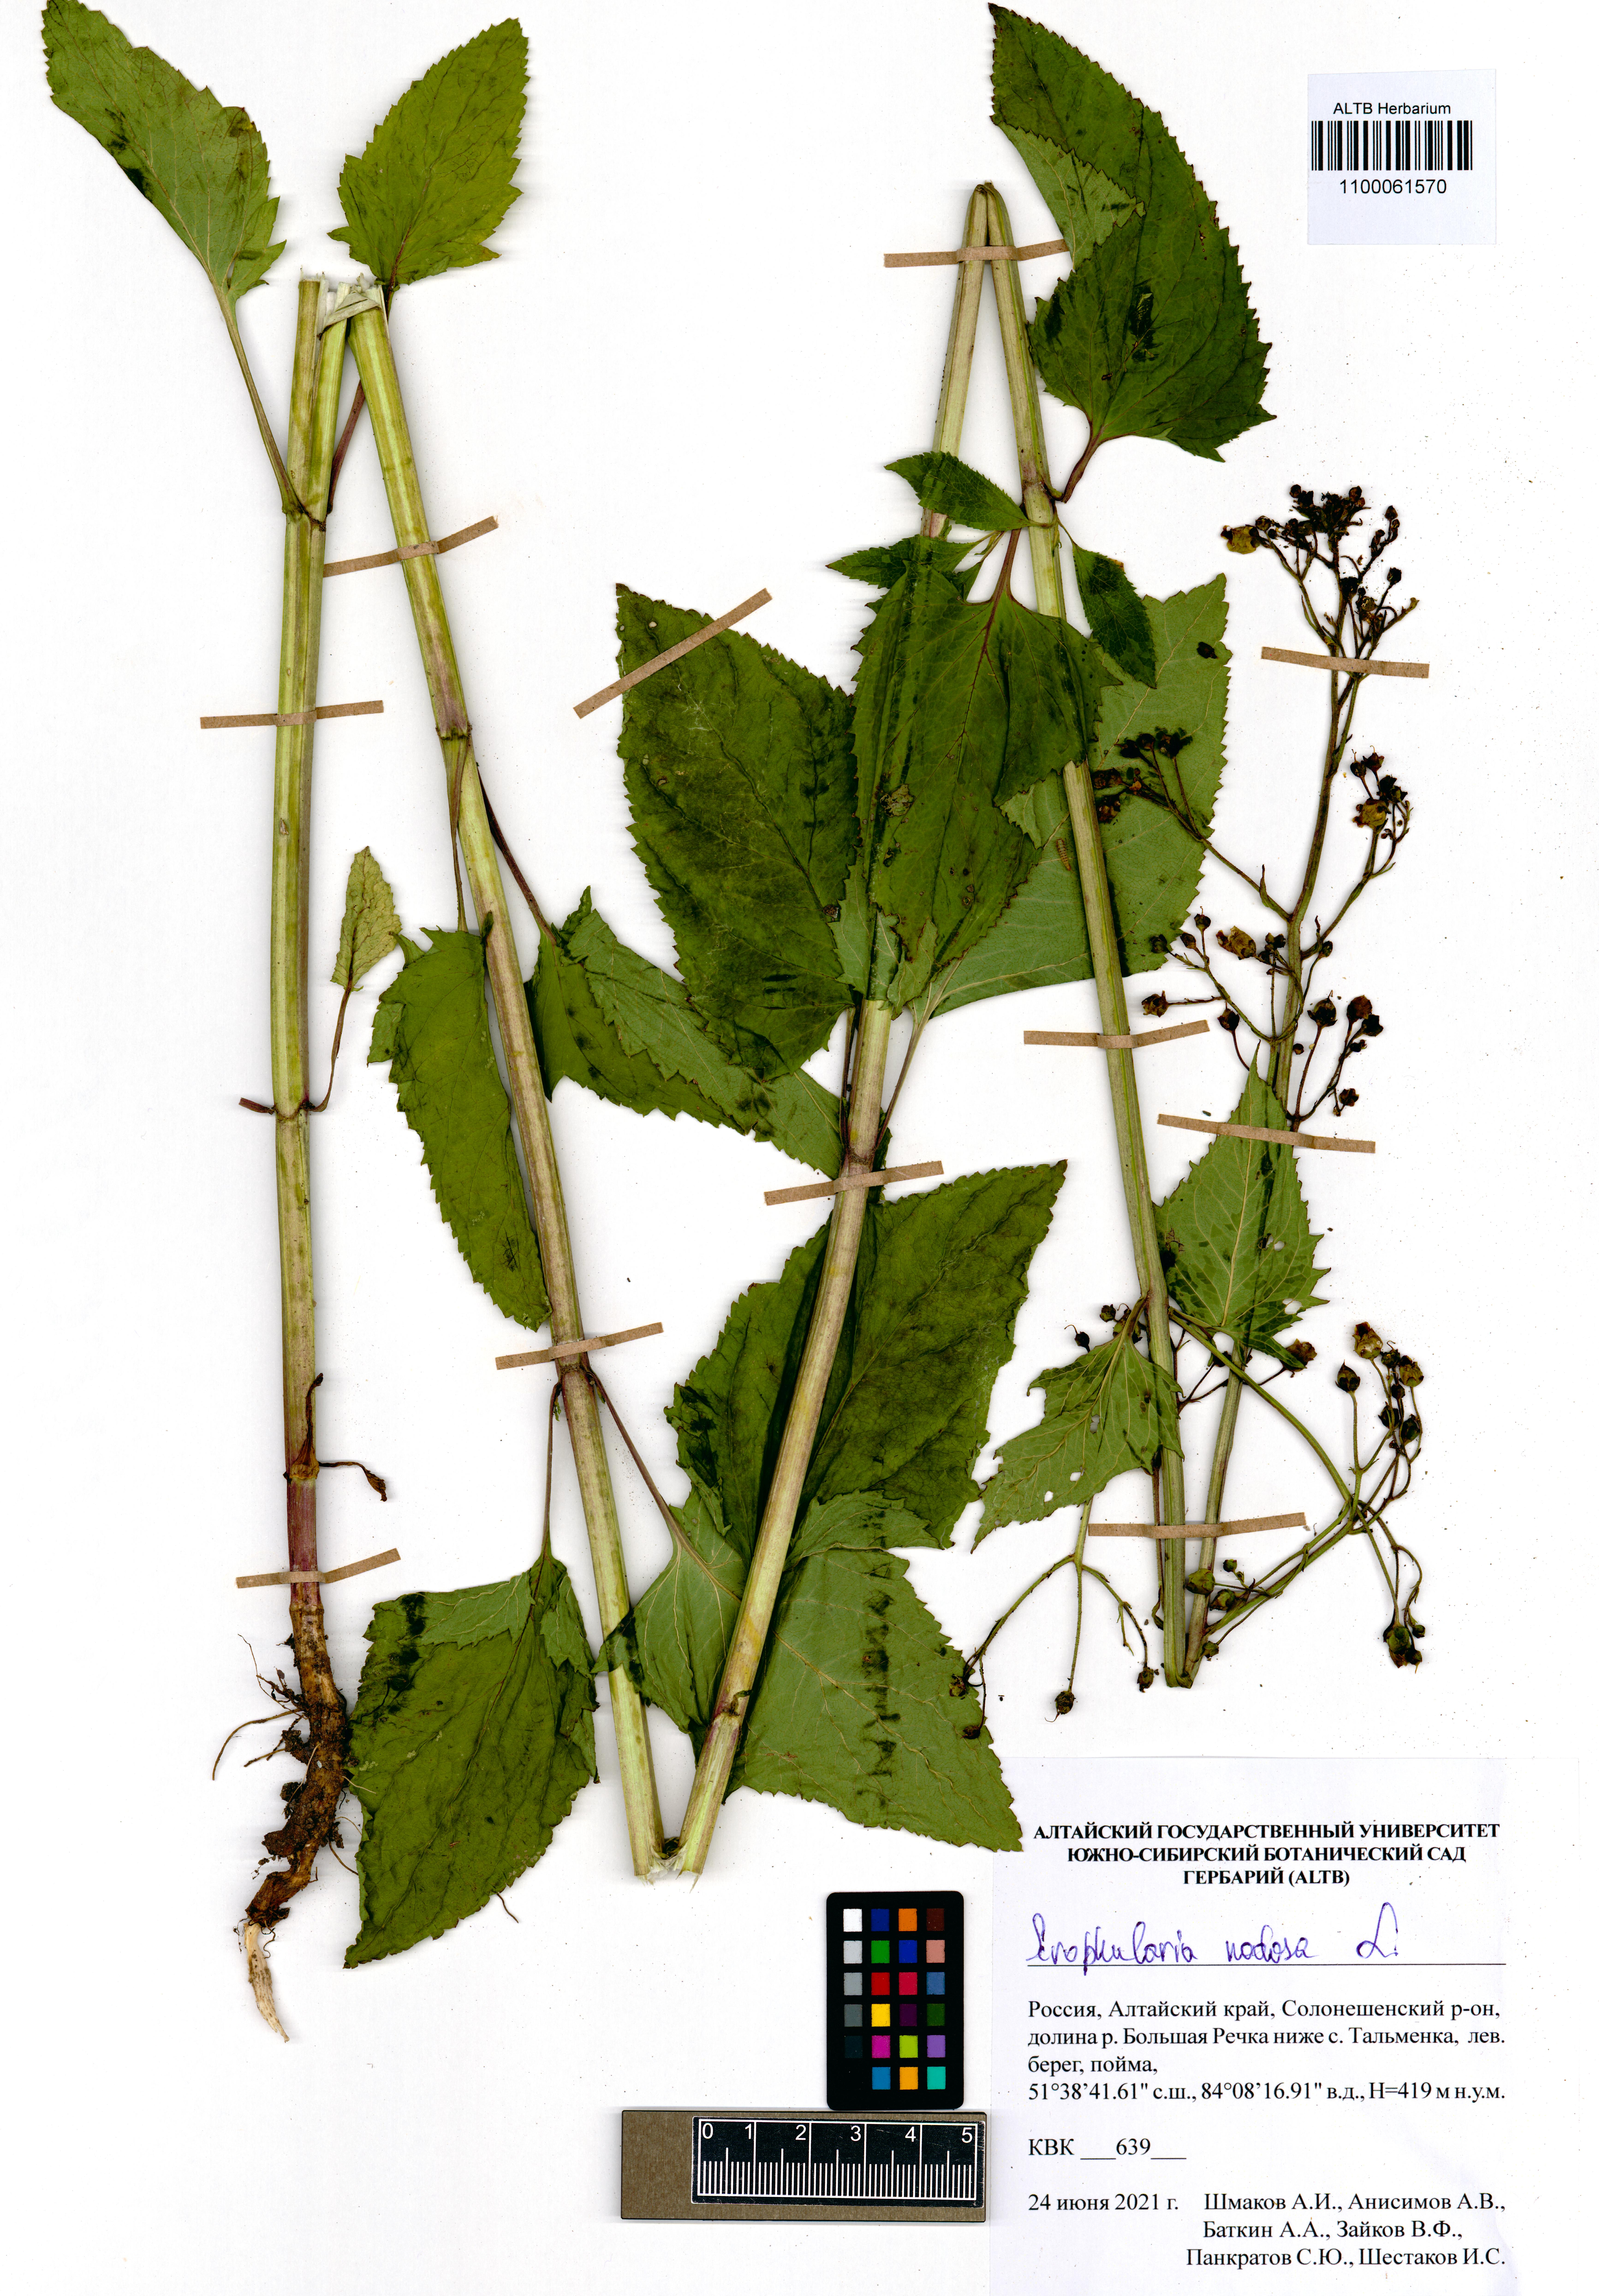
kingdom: Plantae
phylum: Tracheophyta
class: Magnoliopsida
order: Lamiales
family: Scrophulariaceae
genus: Scrophularia
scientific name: Scrophularia nodosa
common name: Common figwort
